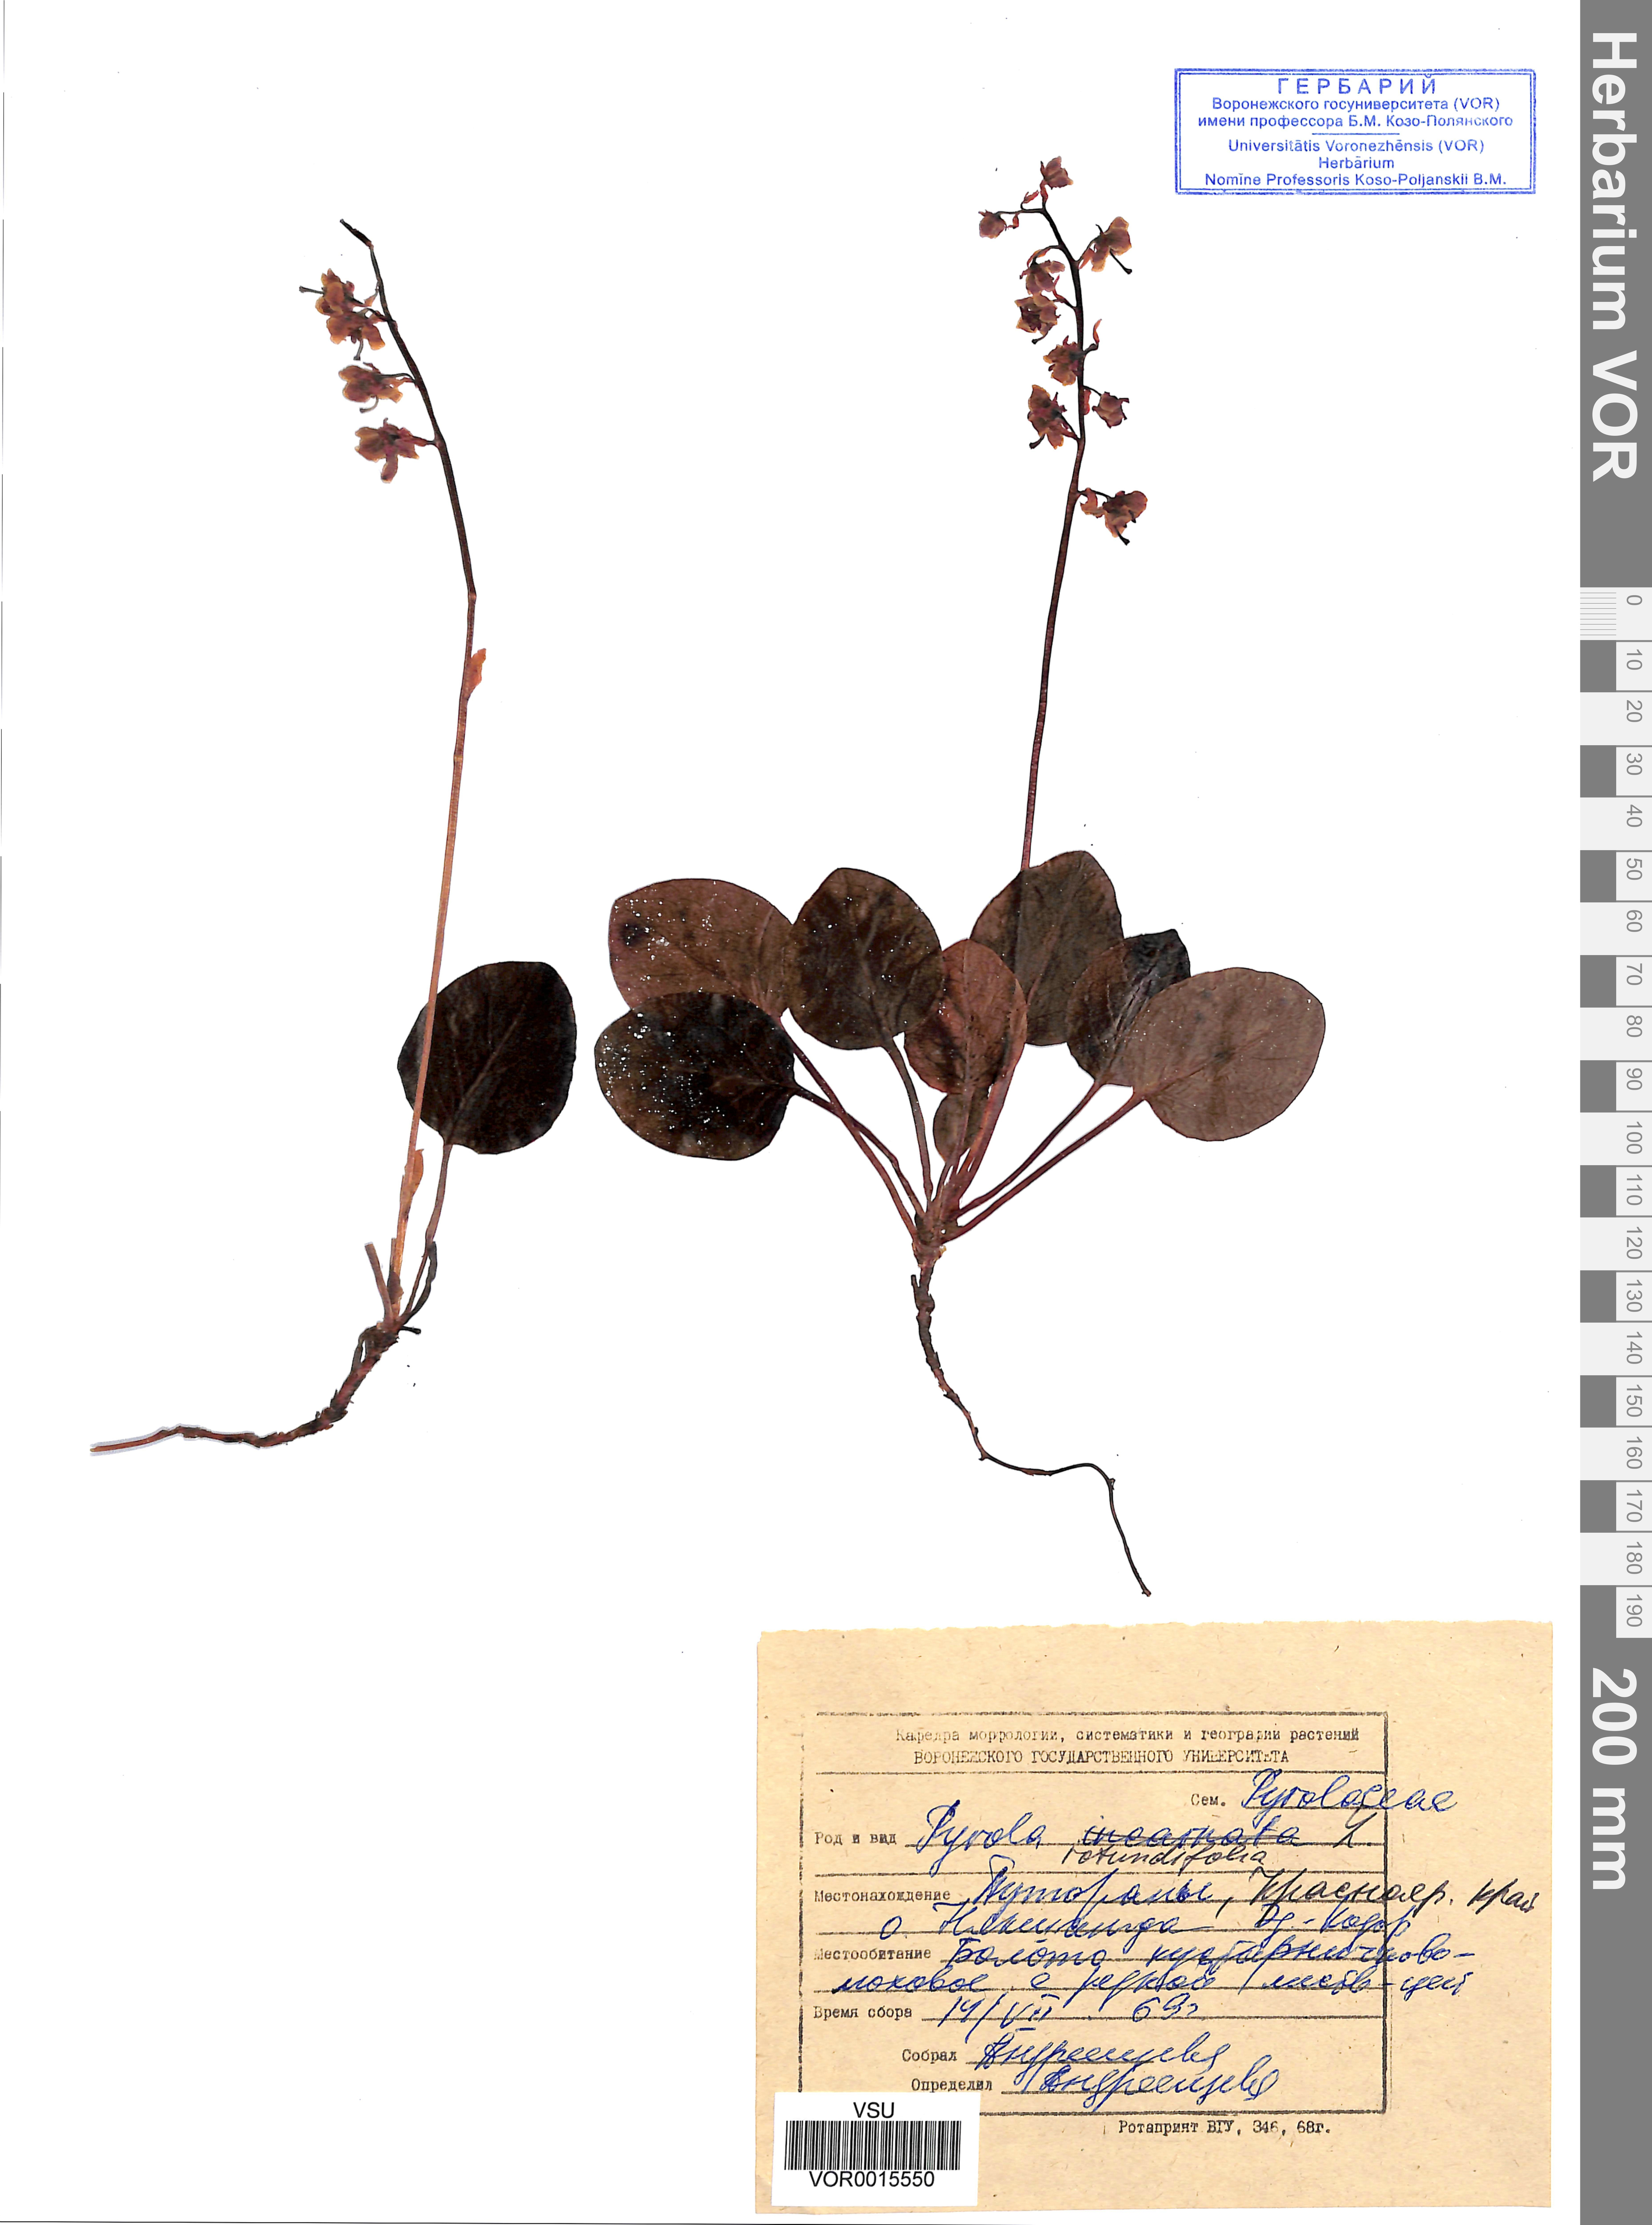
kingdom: Plantae
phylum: Tracheophyta
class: Magnoliopsida
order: Ericales
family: Ericaceae
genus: Pyrola
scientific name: Pyrola rotundifolia
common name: Round-leaved wintergreen
